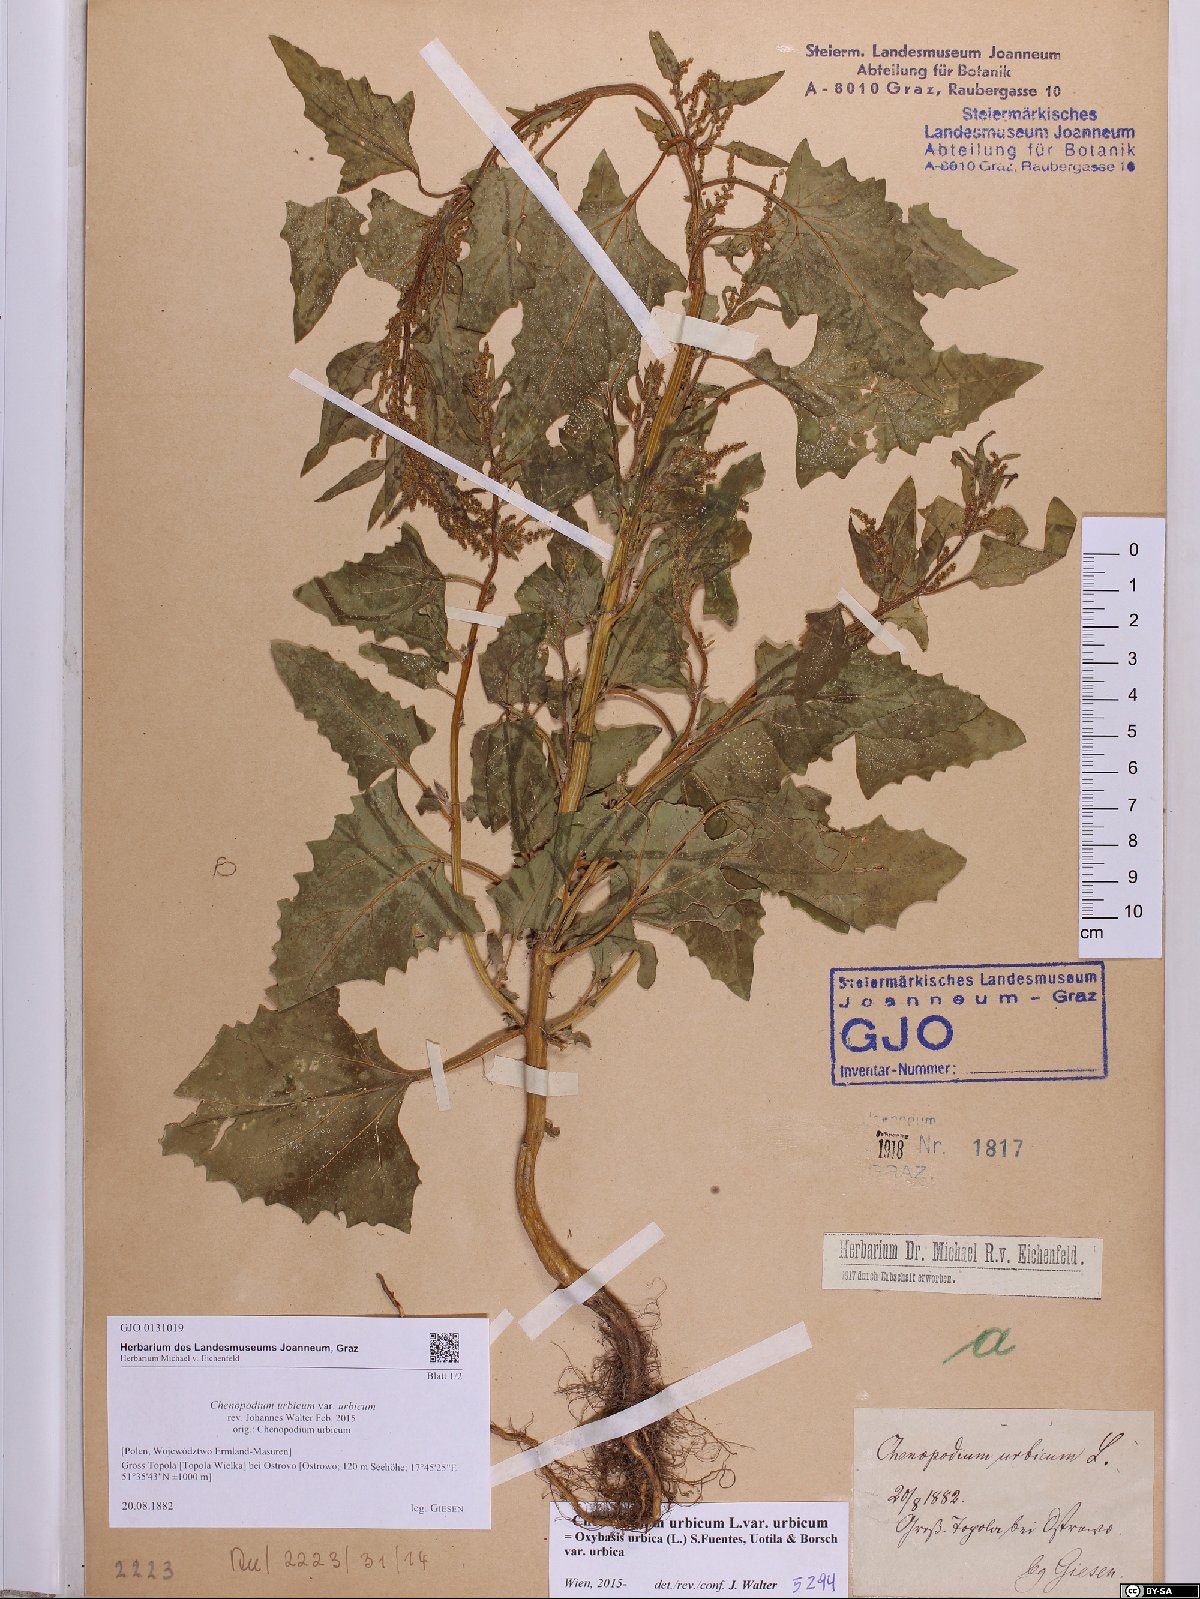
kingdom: Plantae
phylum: Tracheophyta
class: Magnoliopsida
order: Caryophyllales
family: Amaranthaceae
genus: Oxybasis
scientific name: Oxybasis urbica
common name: City goosefoot
